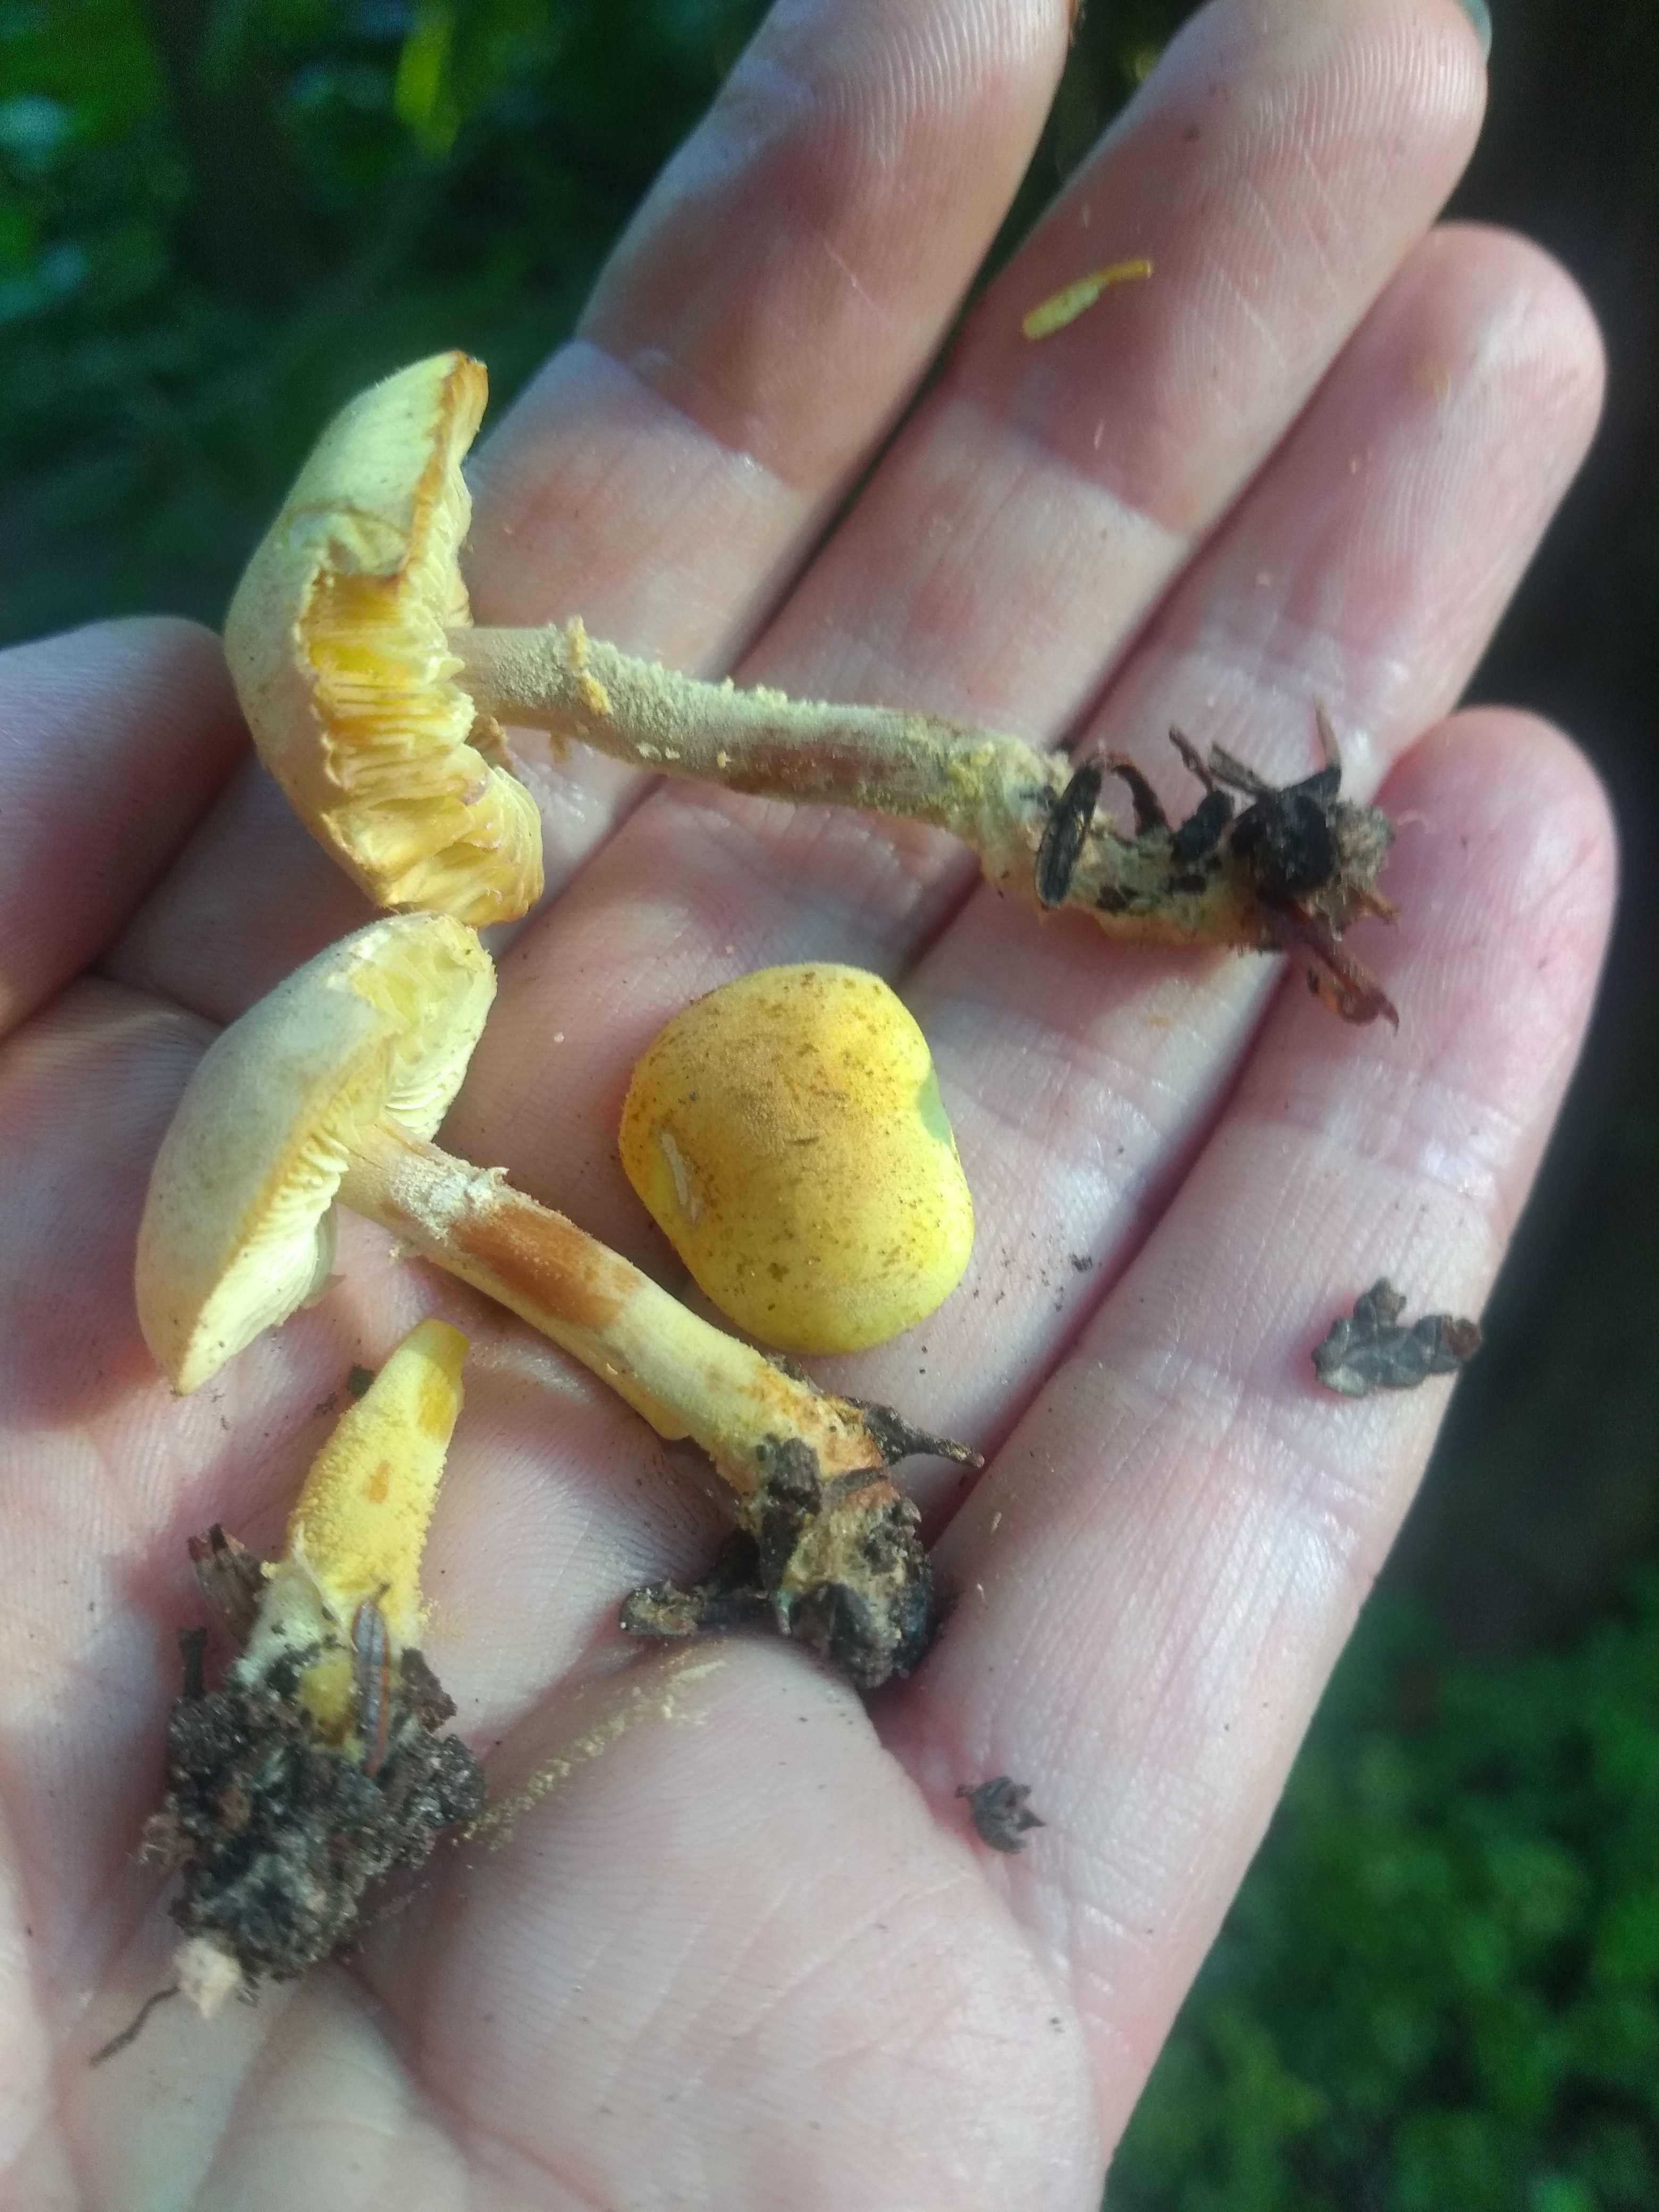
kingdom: Fungi
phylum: Basidiomycota
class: Agaricomycetes
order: Agaricales
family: Agaricaceae
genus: Cystolepiota
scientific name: Cystolepiota icterina
